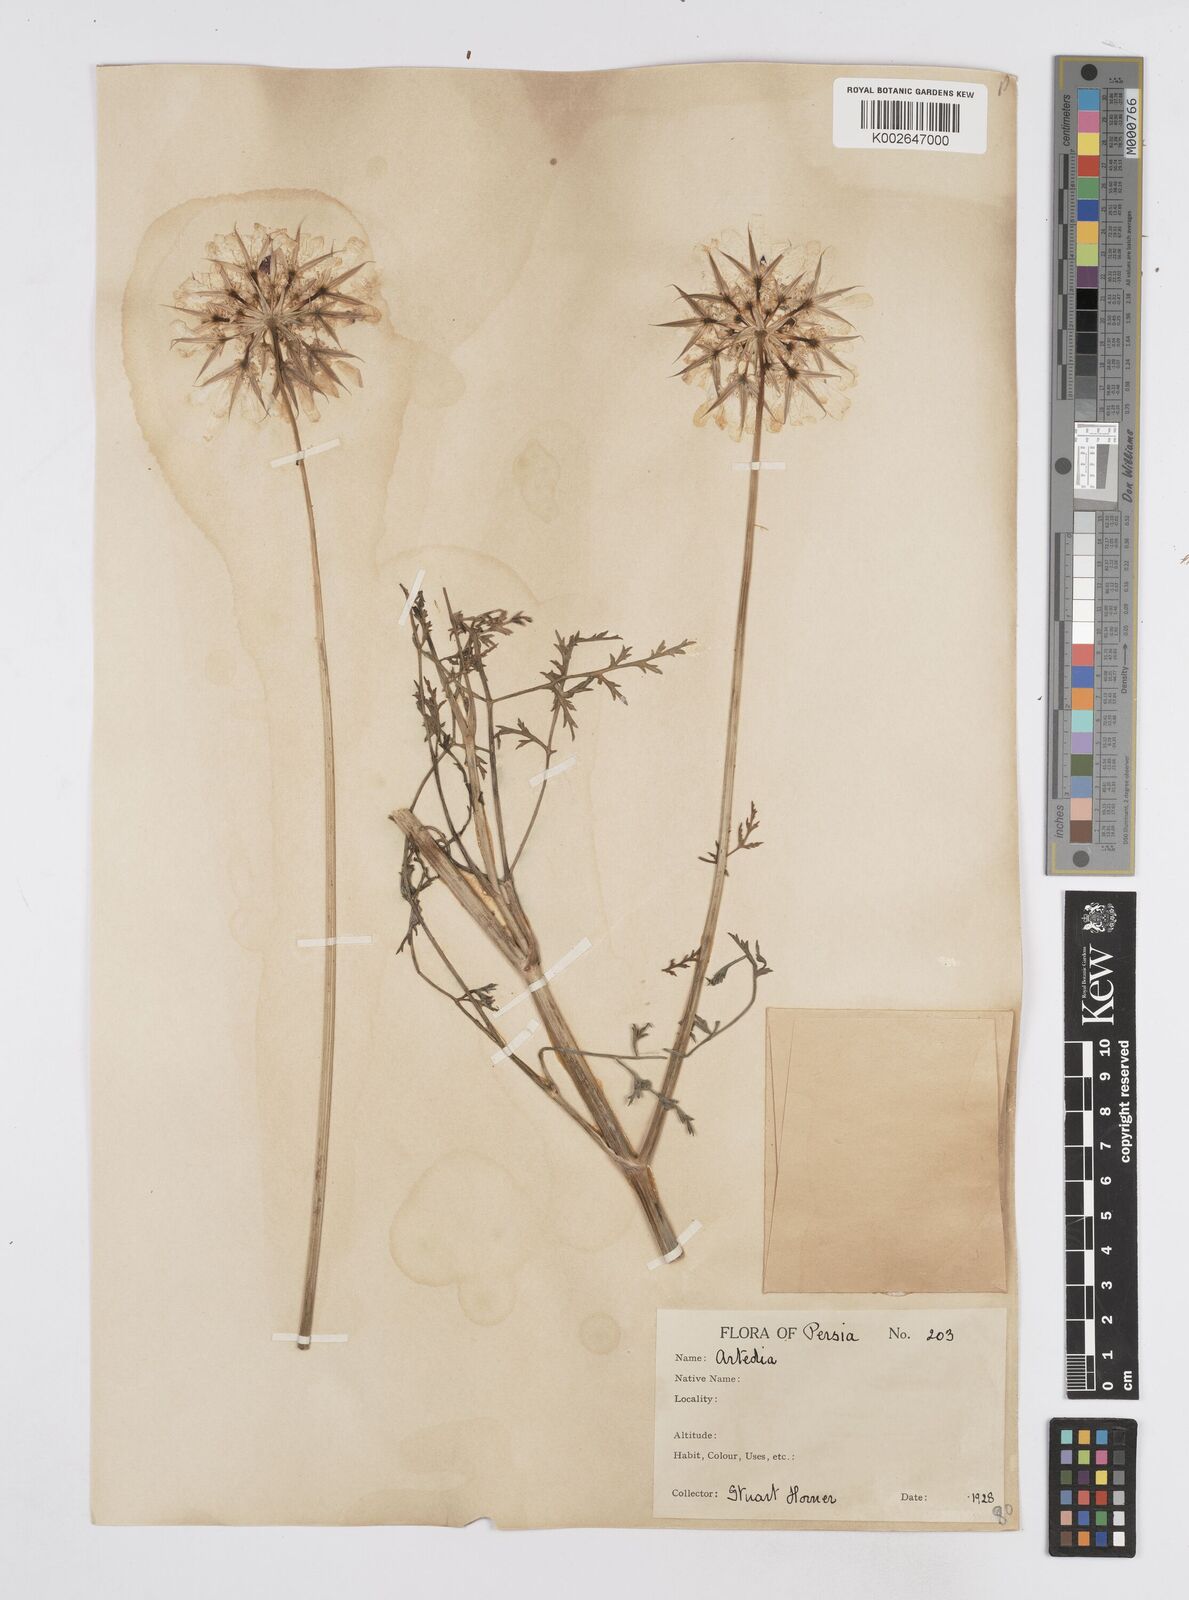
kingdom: Plantae
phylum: Tracheophyta
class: Magnoliopsida
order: Apiales
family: Apiaceae
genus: Dicyclophora
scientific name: Dicyclophora persica
